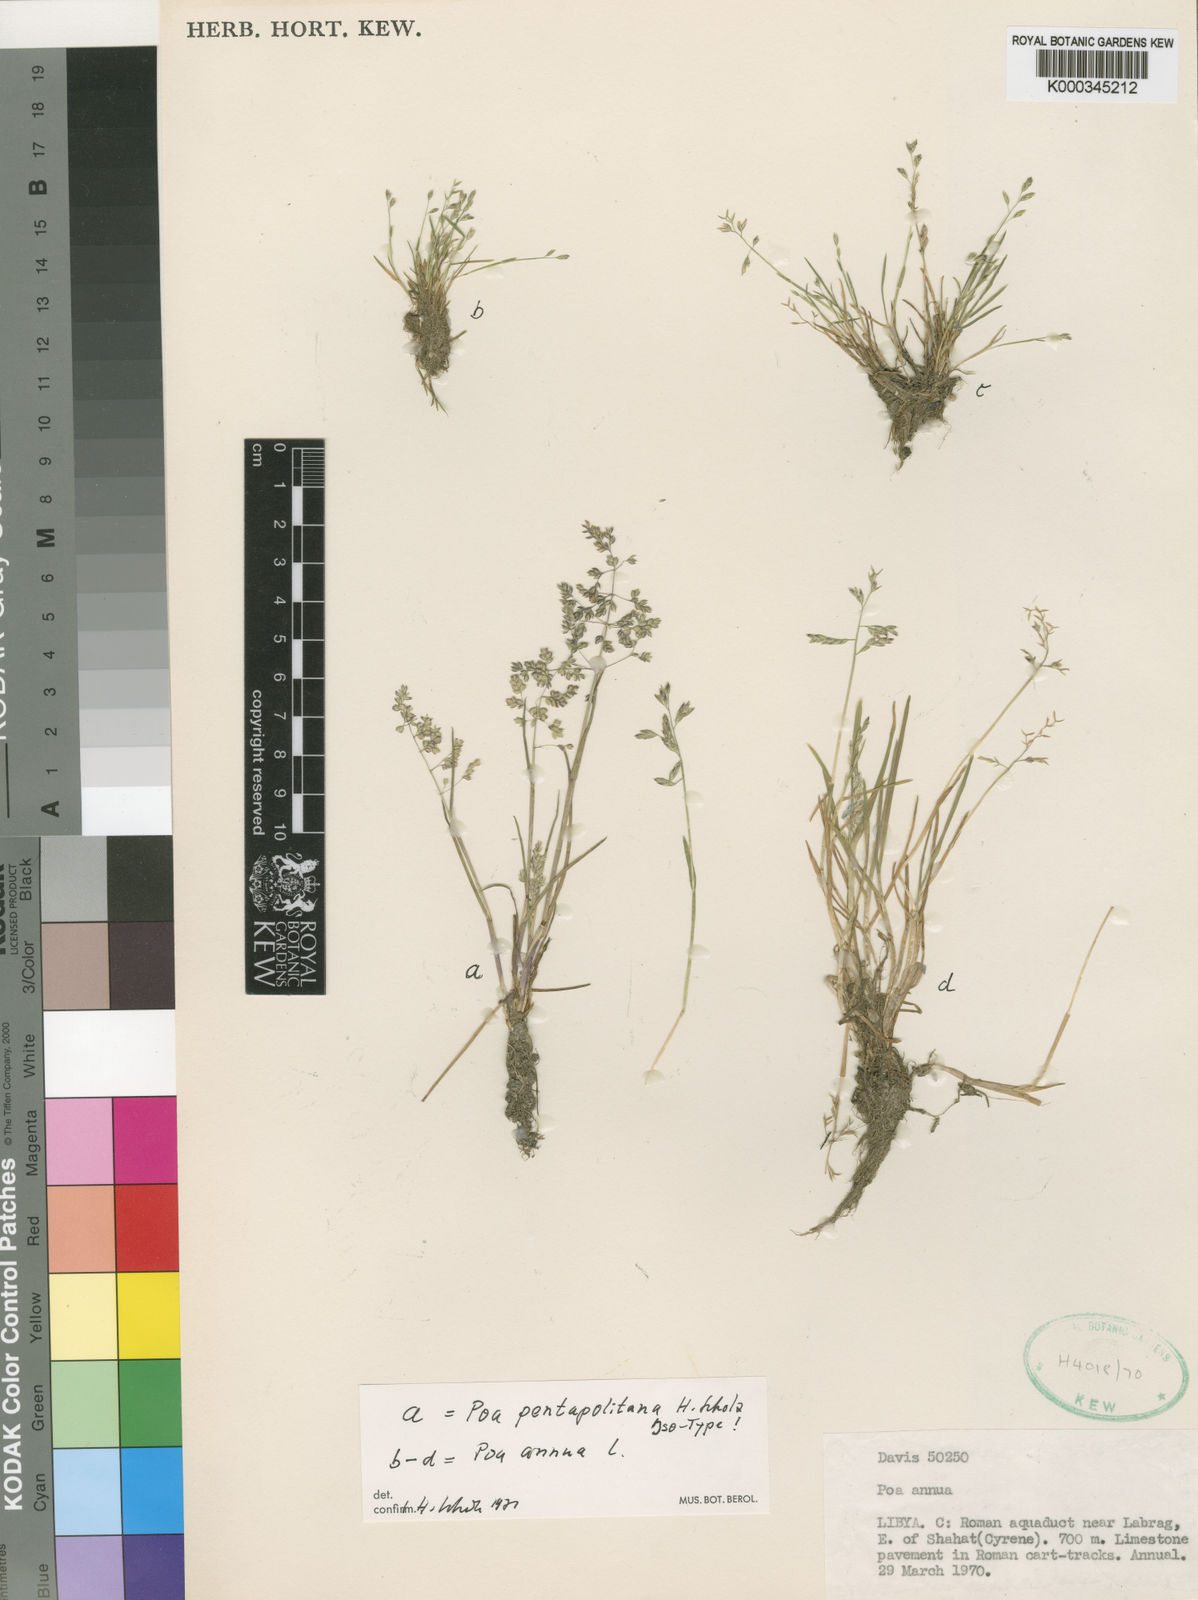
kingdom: Plantae
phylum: Tracheophyta
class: Liliopsida
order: Poales
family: Poaceae
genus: Poa
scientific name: Poa annua
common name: Annual bluegrass
